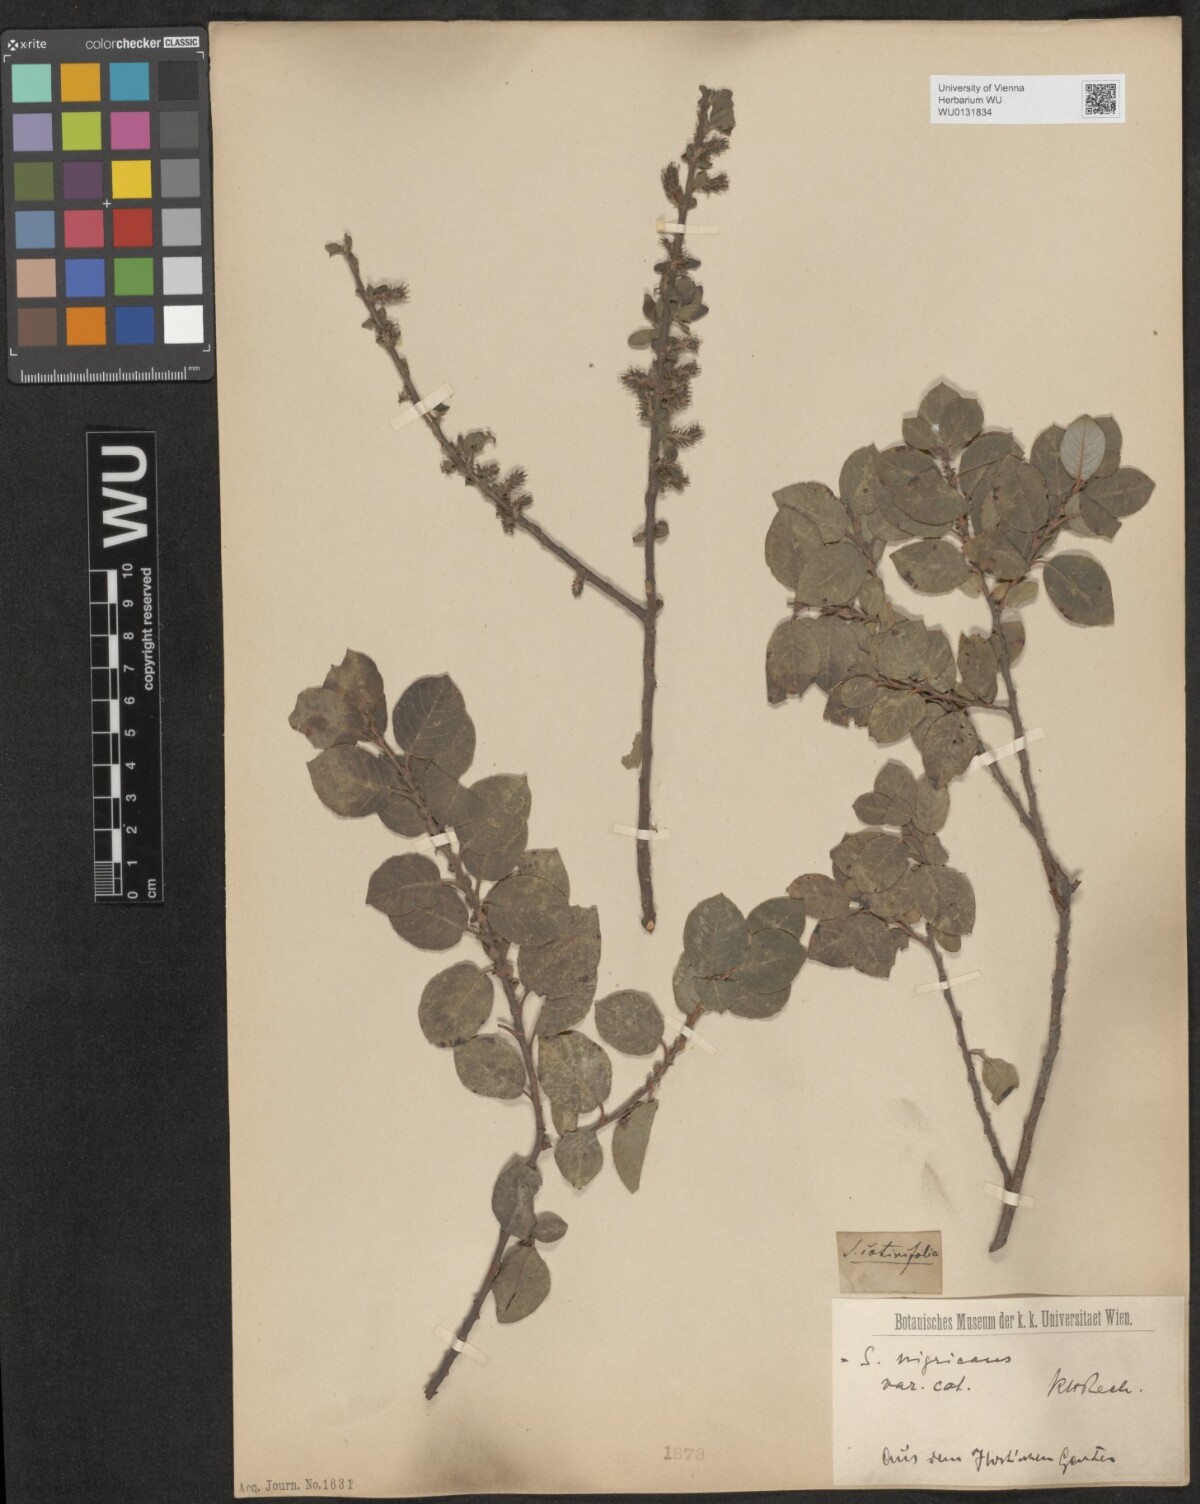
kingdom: Plantae
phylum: Tracheophyta
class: Magnoliopsida
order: Malpighiales
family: Salicaceae
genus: Salix
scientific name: Salix myrsinifolia
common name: Dark-leaved willow
